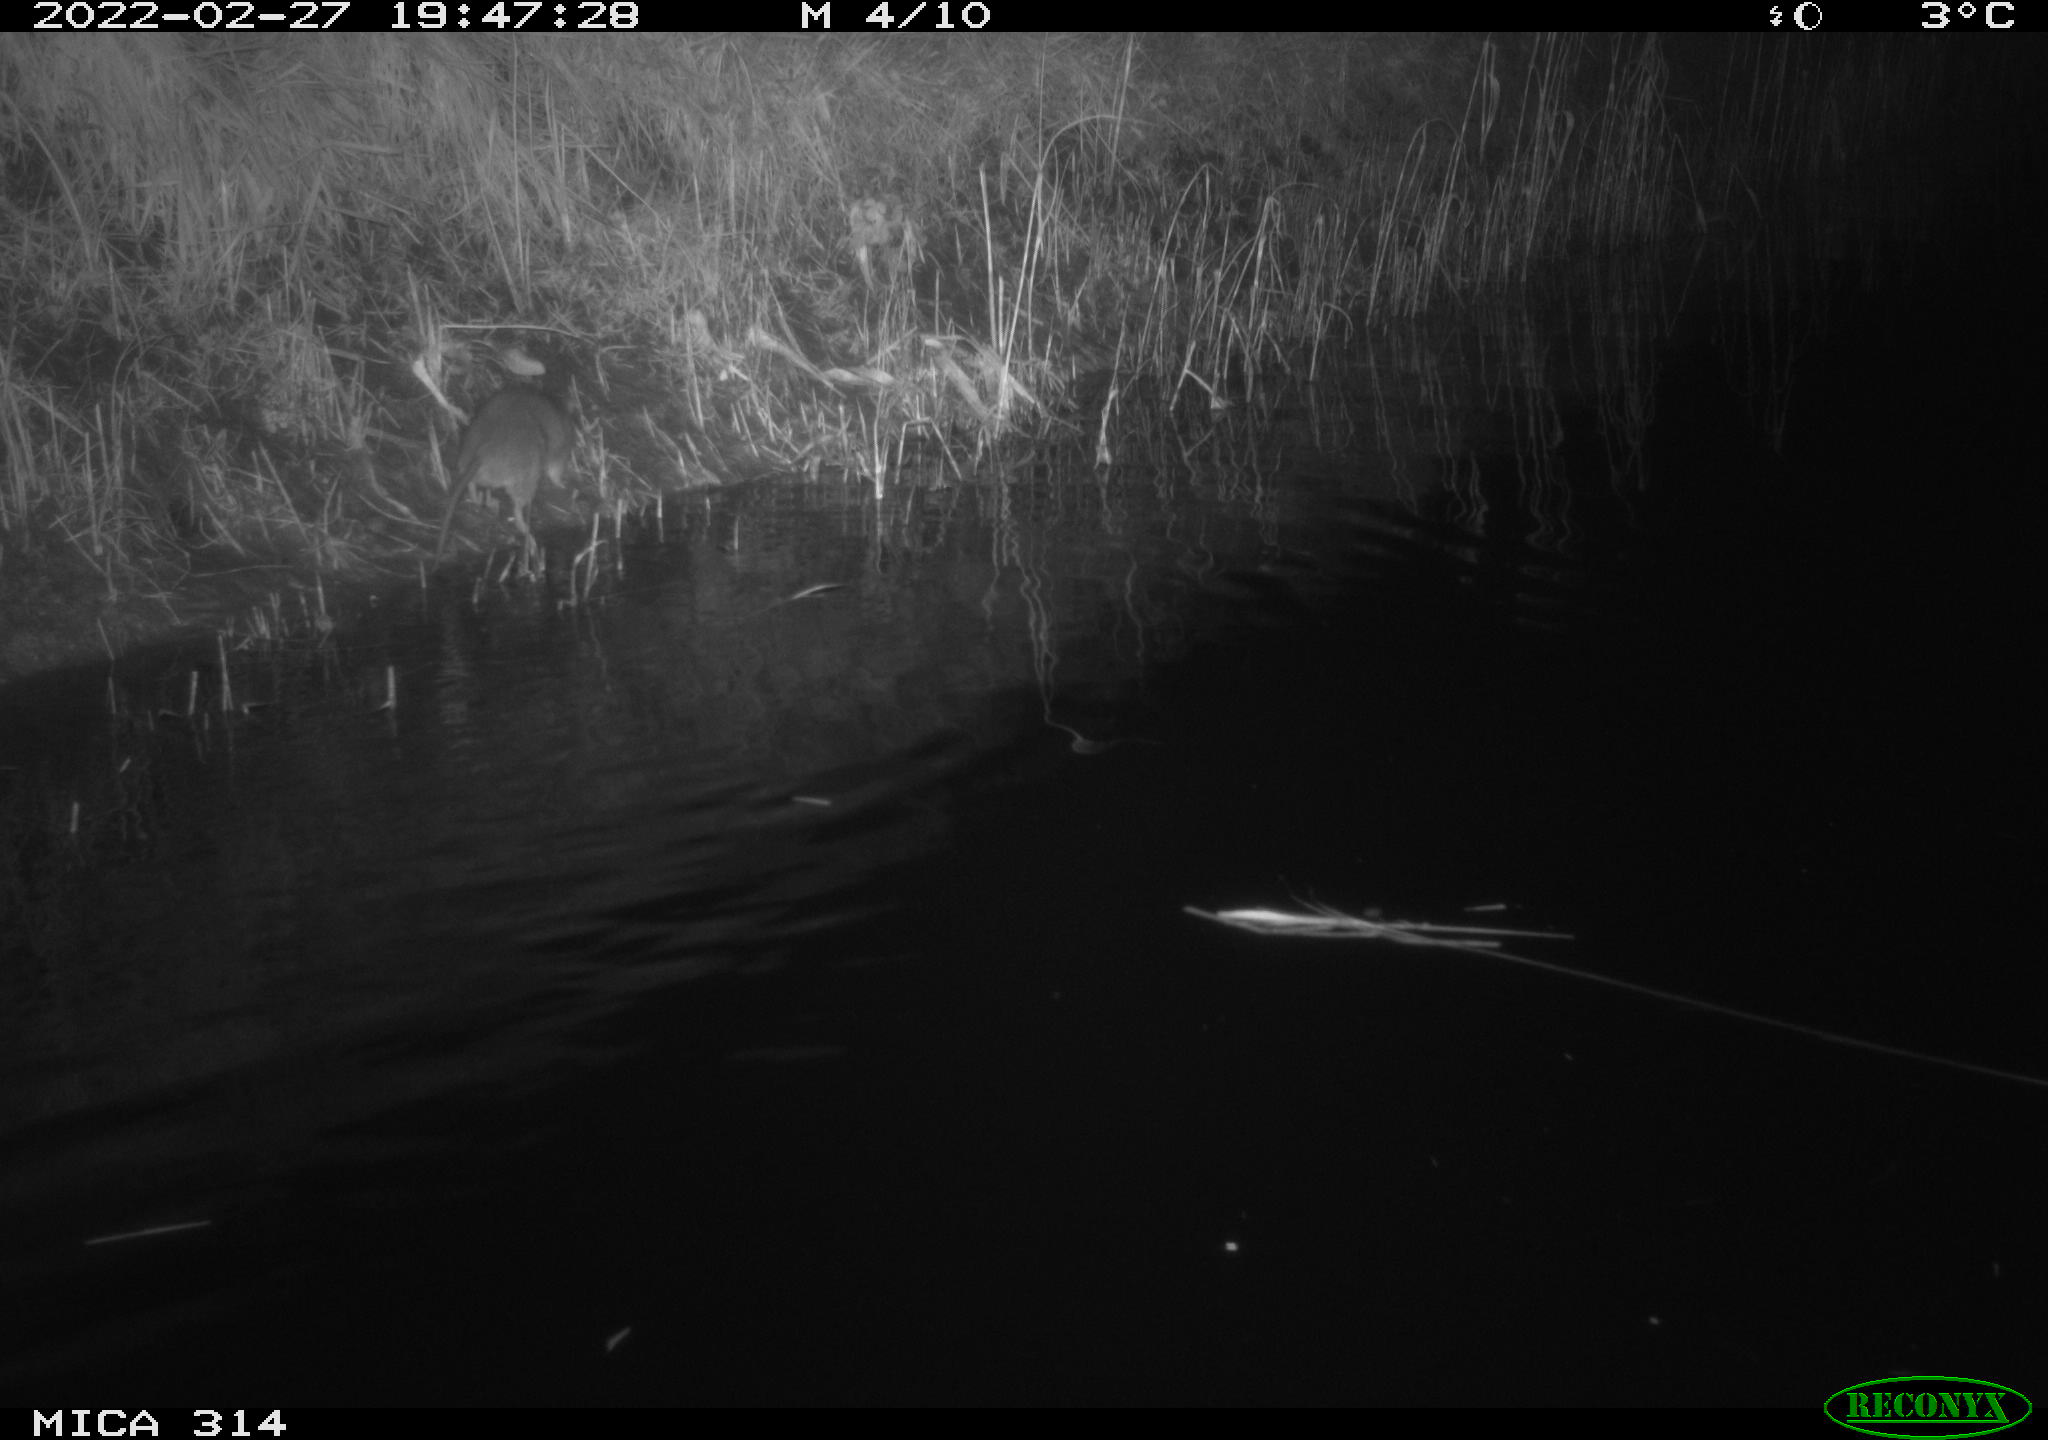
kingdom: Animalia
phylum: Chordata
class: Mammalia
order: Rodentia
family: Muridae
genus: Rattus
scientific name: Rattus norvegicus
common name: Brown rat
